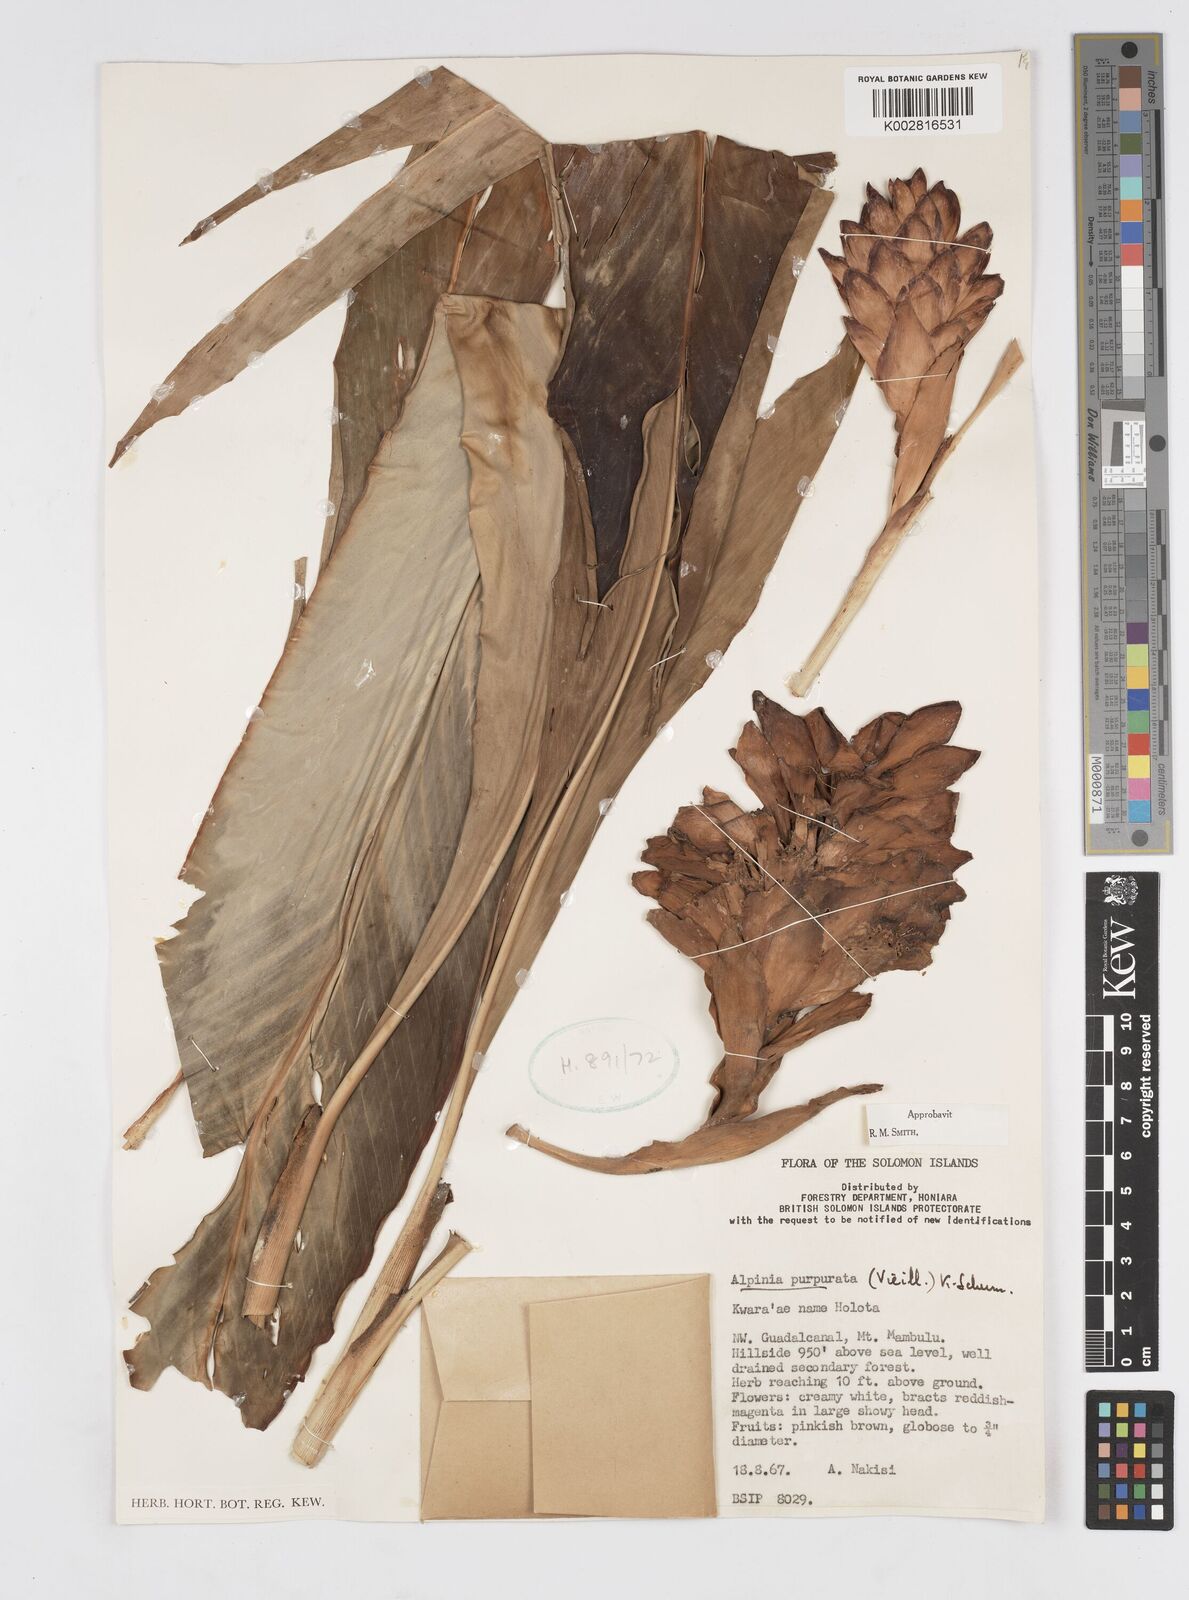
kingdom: Plantae
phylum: Tracheophyta
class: Liliopsida
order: Zingiberales
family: Zingiberaceae
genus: Alpinia
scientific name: Alpinia purpurata
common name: Red ginger
